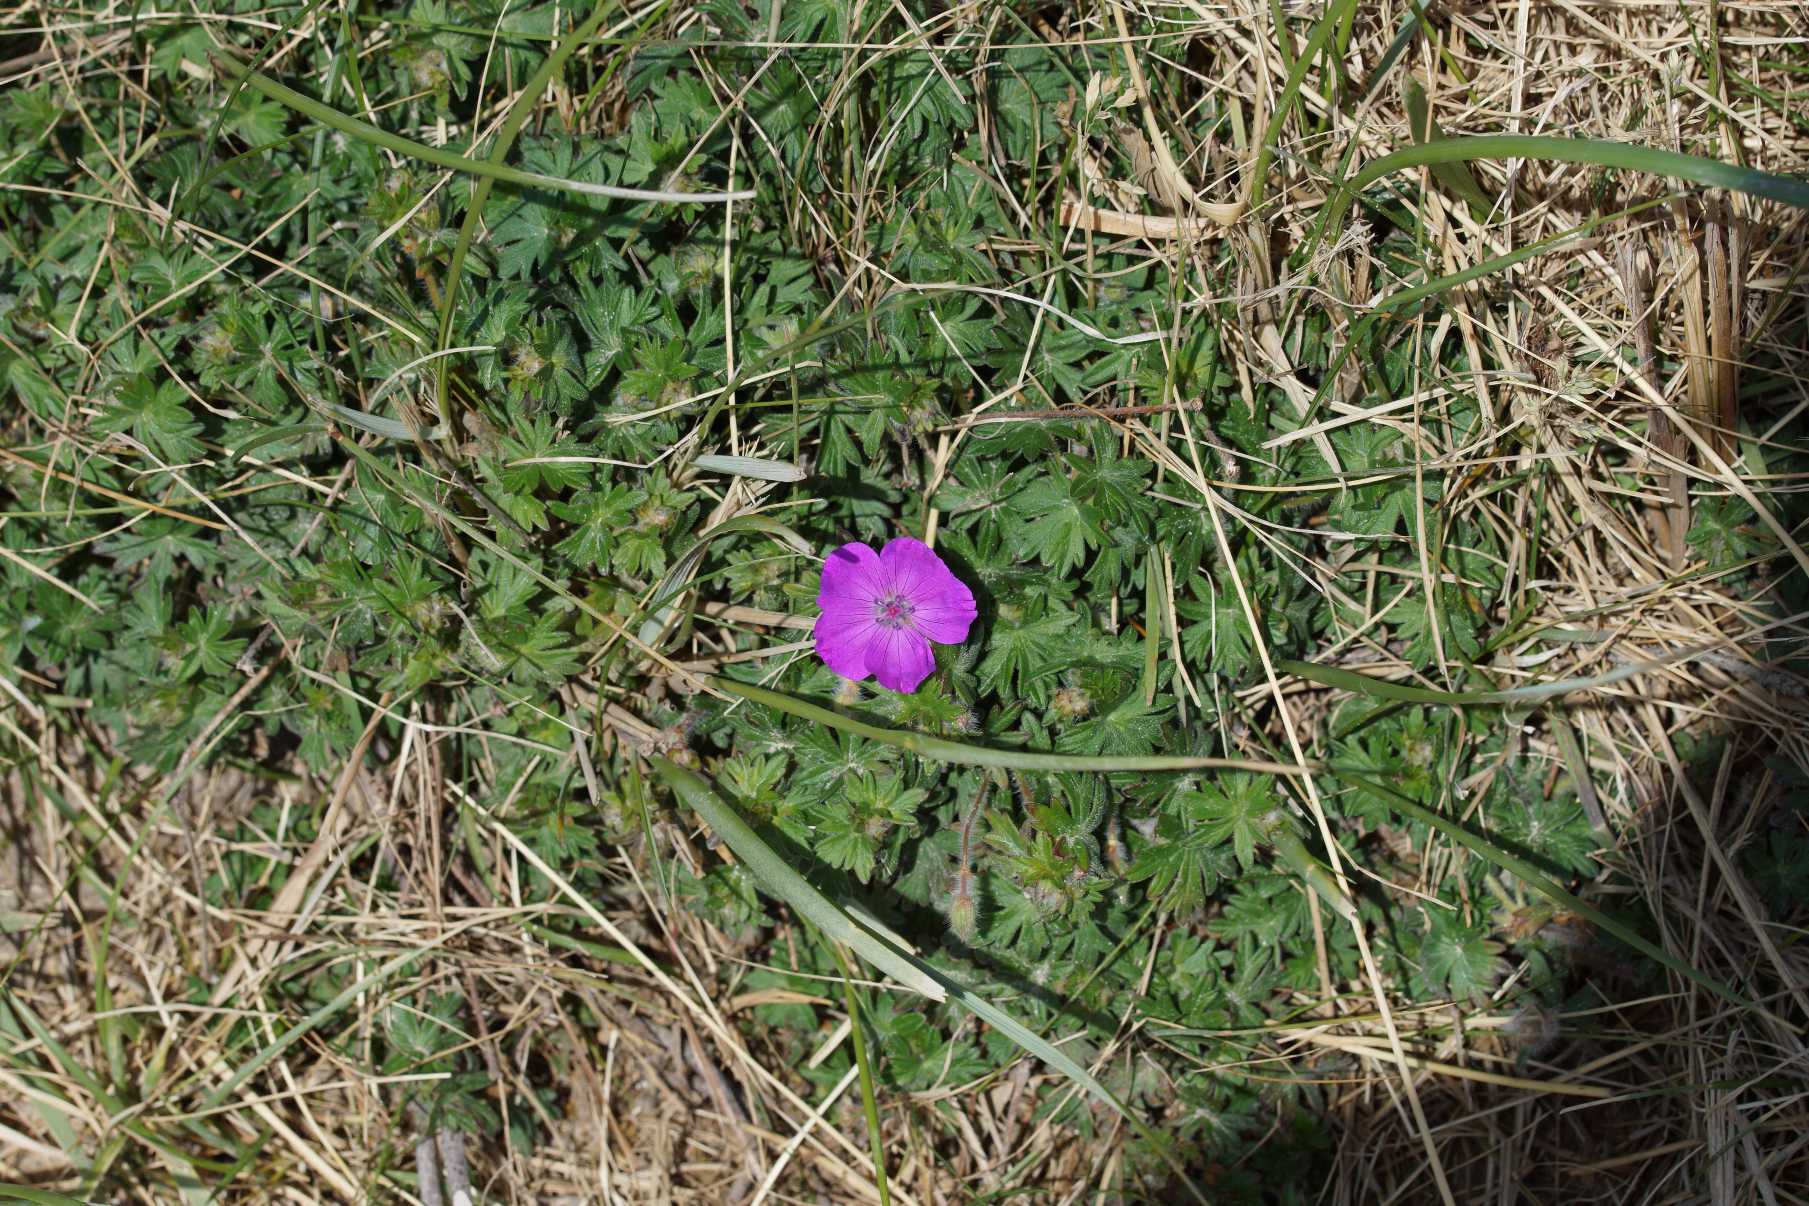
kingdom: Plantae
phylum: Tracheophyta
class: Magnoliopsida
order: Geraniales
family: Geraniaceae
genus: Geranium
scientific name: Geranium sanguineum
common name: Blodrød storkenæb
